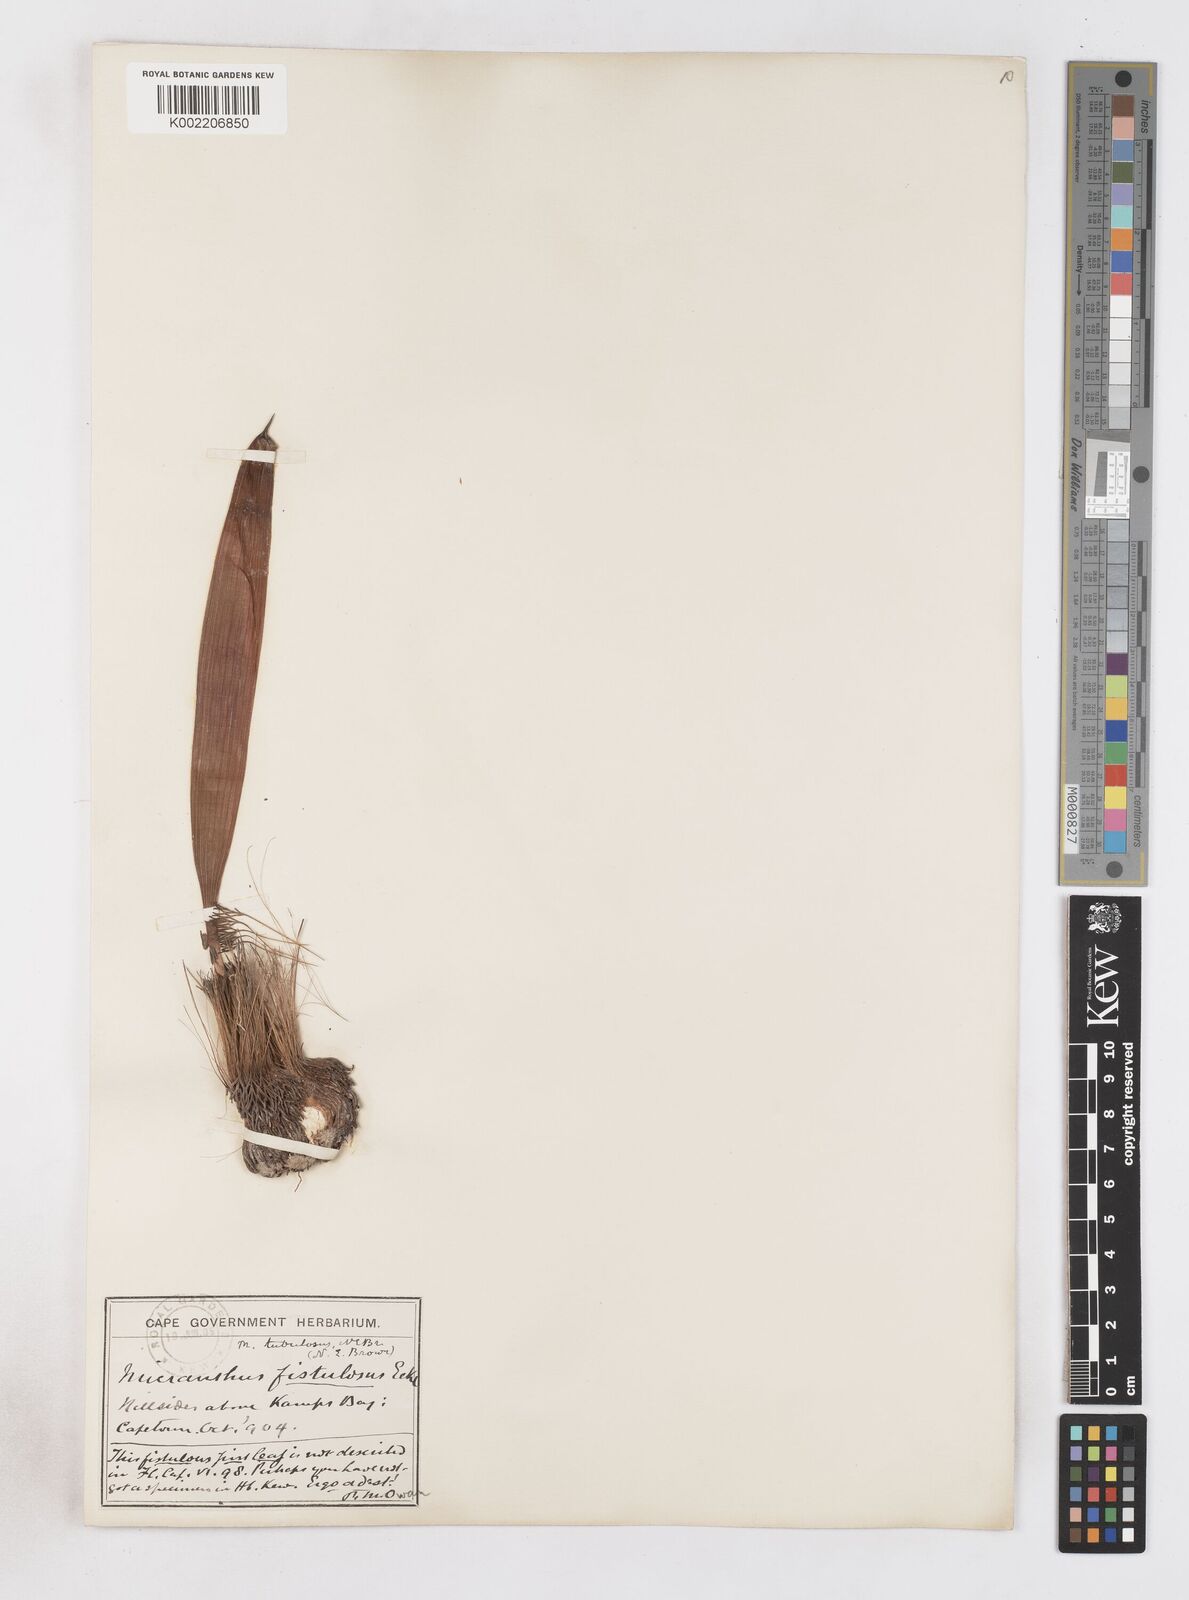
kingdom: Plantae
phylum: Tracheophyta
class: Liliopsida
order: Asparagales
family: Iridaceae
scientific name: Iridaceae
